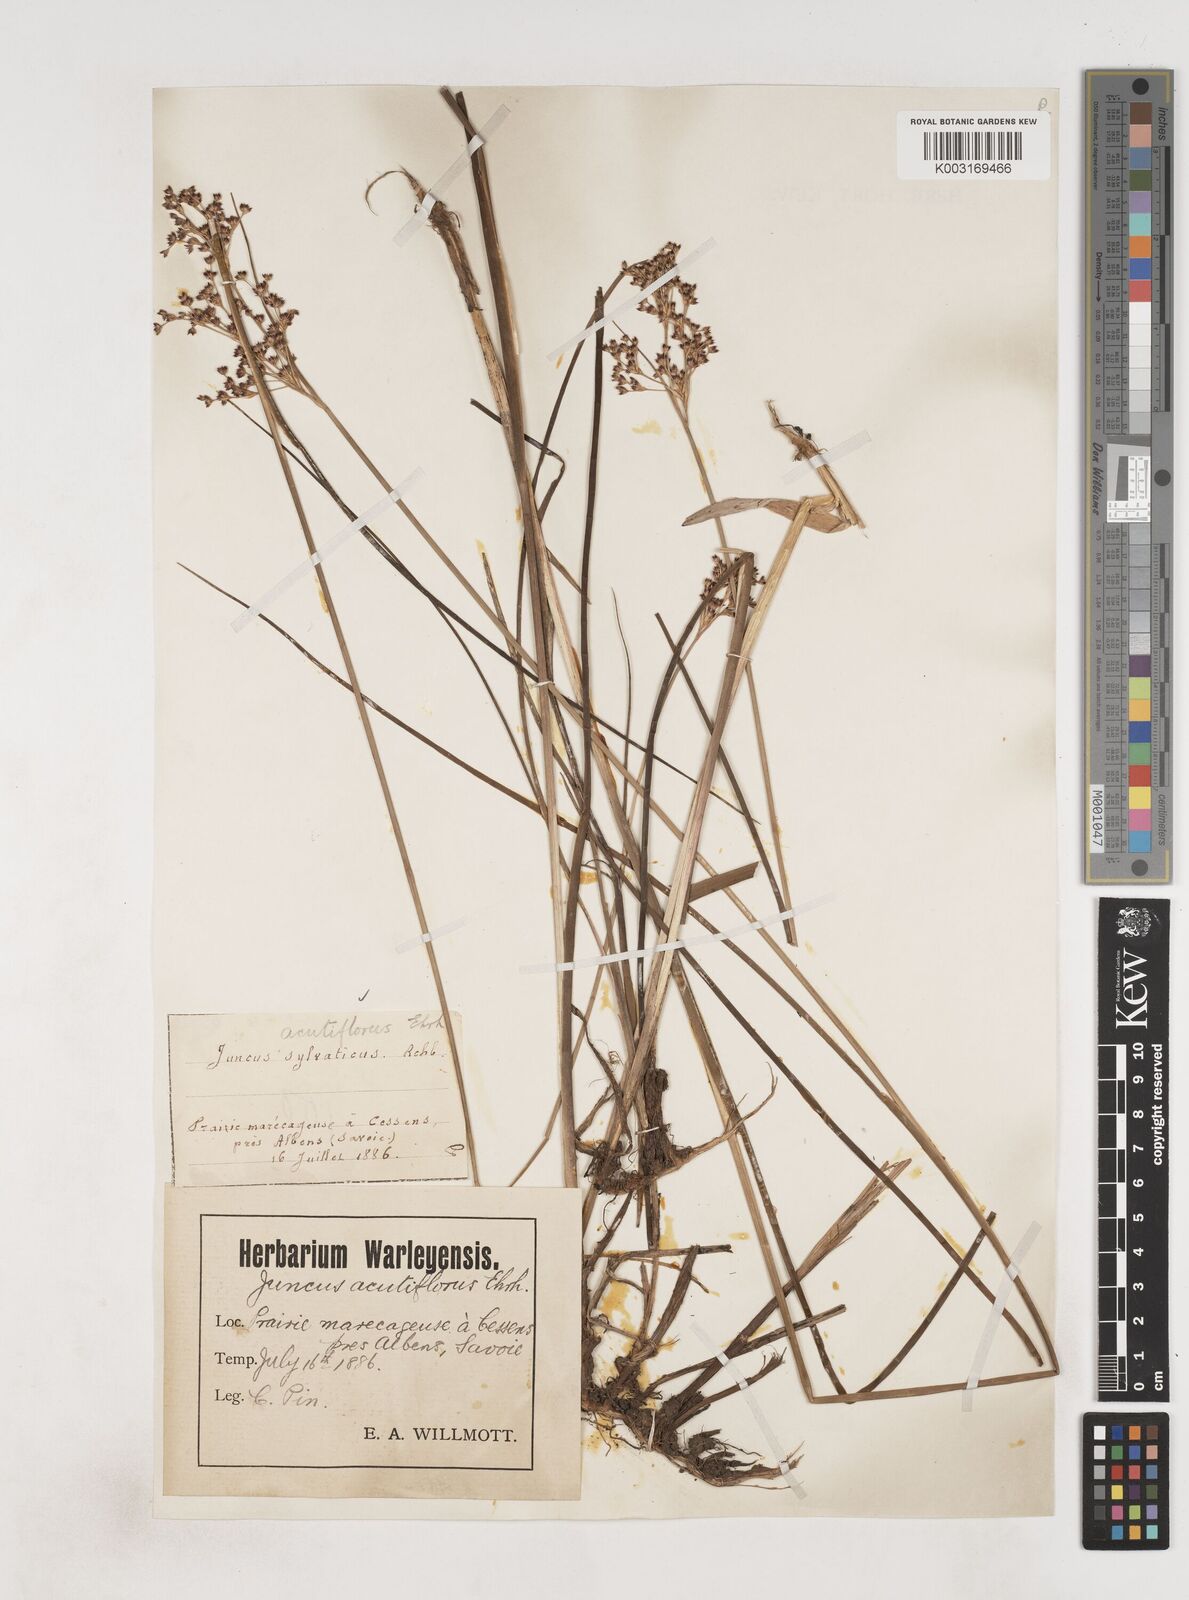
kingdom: Plantae
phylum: Tracheophyta
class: Liliopsida
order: Poales
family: Juncaceae
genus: Juncus
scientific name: Juncus acutiflorus
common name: Sharp-flowered rush
